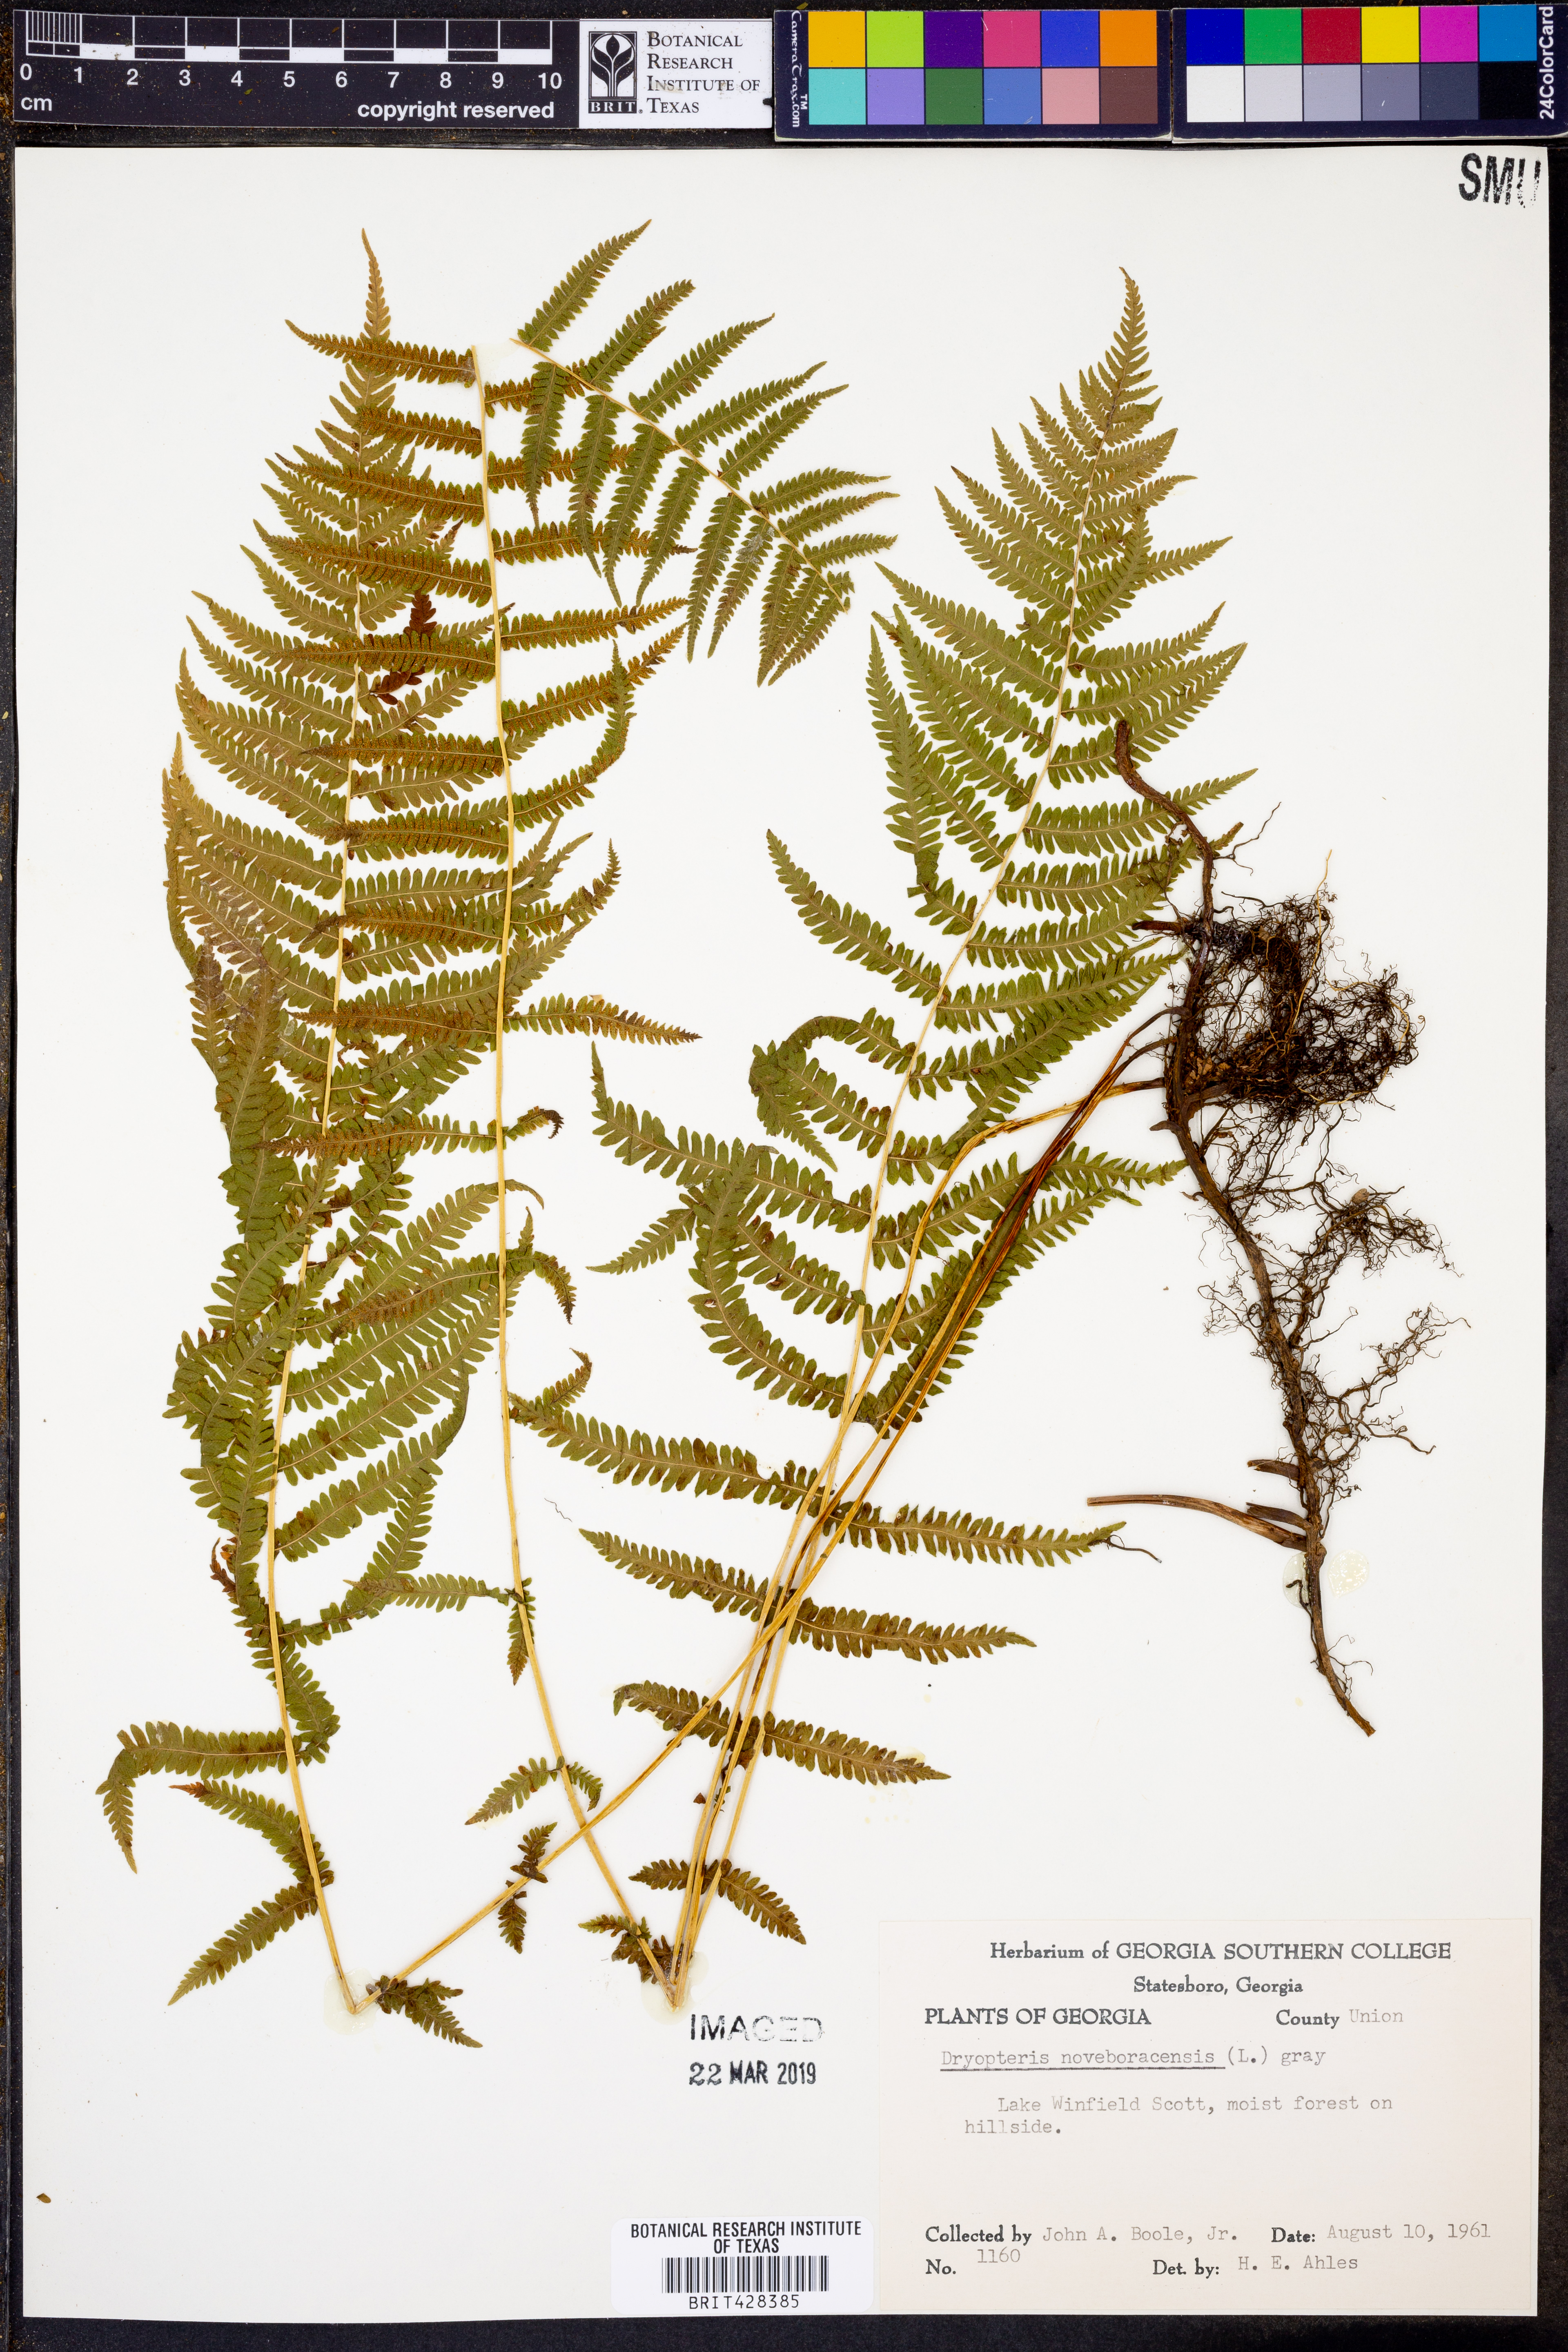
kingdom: Plantae
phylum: Tracheophyta
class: Polypodiopsida
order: Polypodiales
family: Thelypteridaceae
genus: Amauropelta
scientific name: Amauropelta noveboracensis
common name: New york fern
